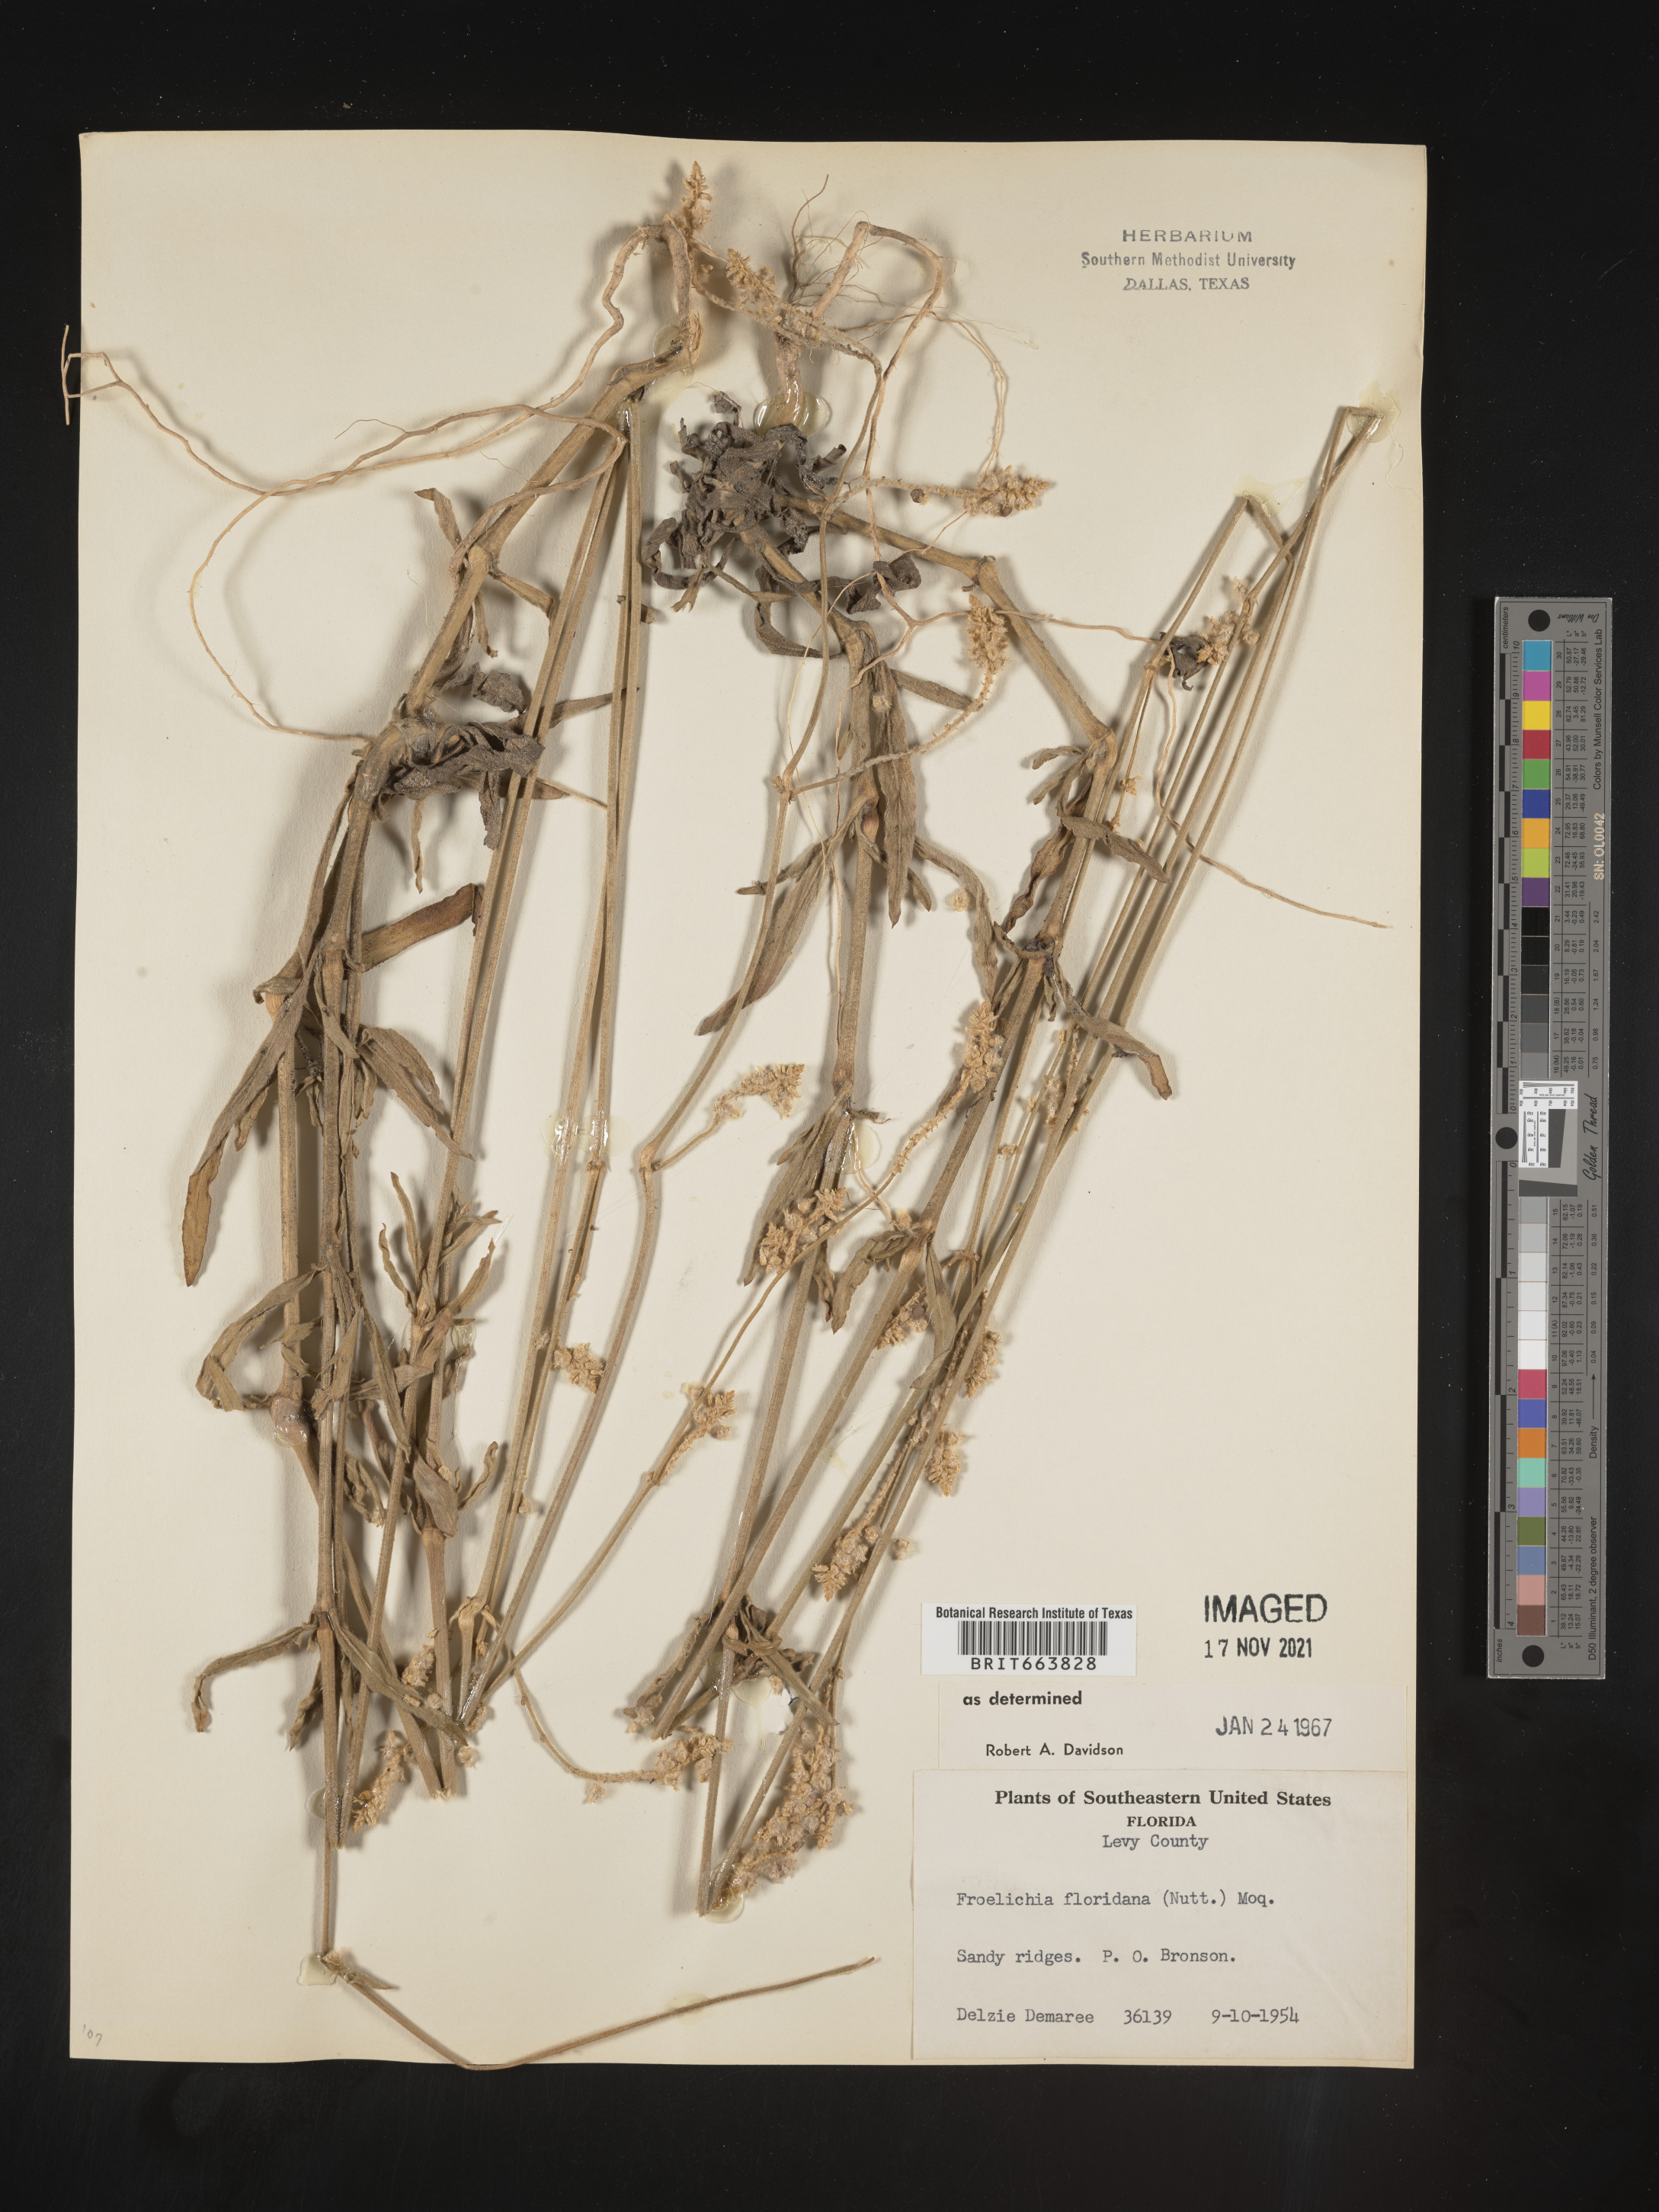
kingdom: Plantae
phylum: Tracheophyta
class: Magnoliopsida
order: Caryophyllales
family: Amaranthaceae
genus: Froelichia
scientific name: Froelichia floridana
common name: Florida snake-cotton
